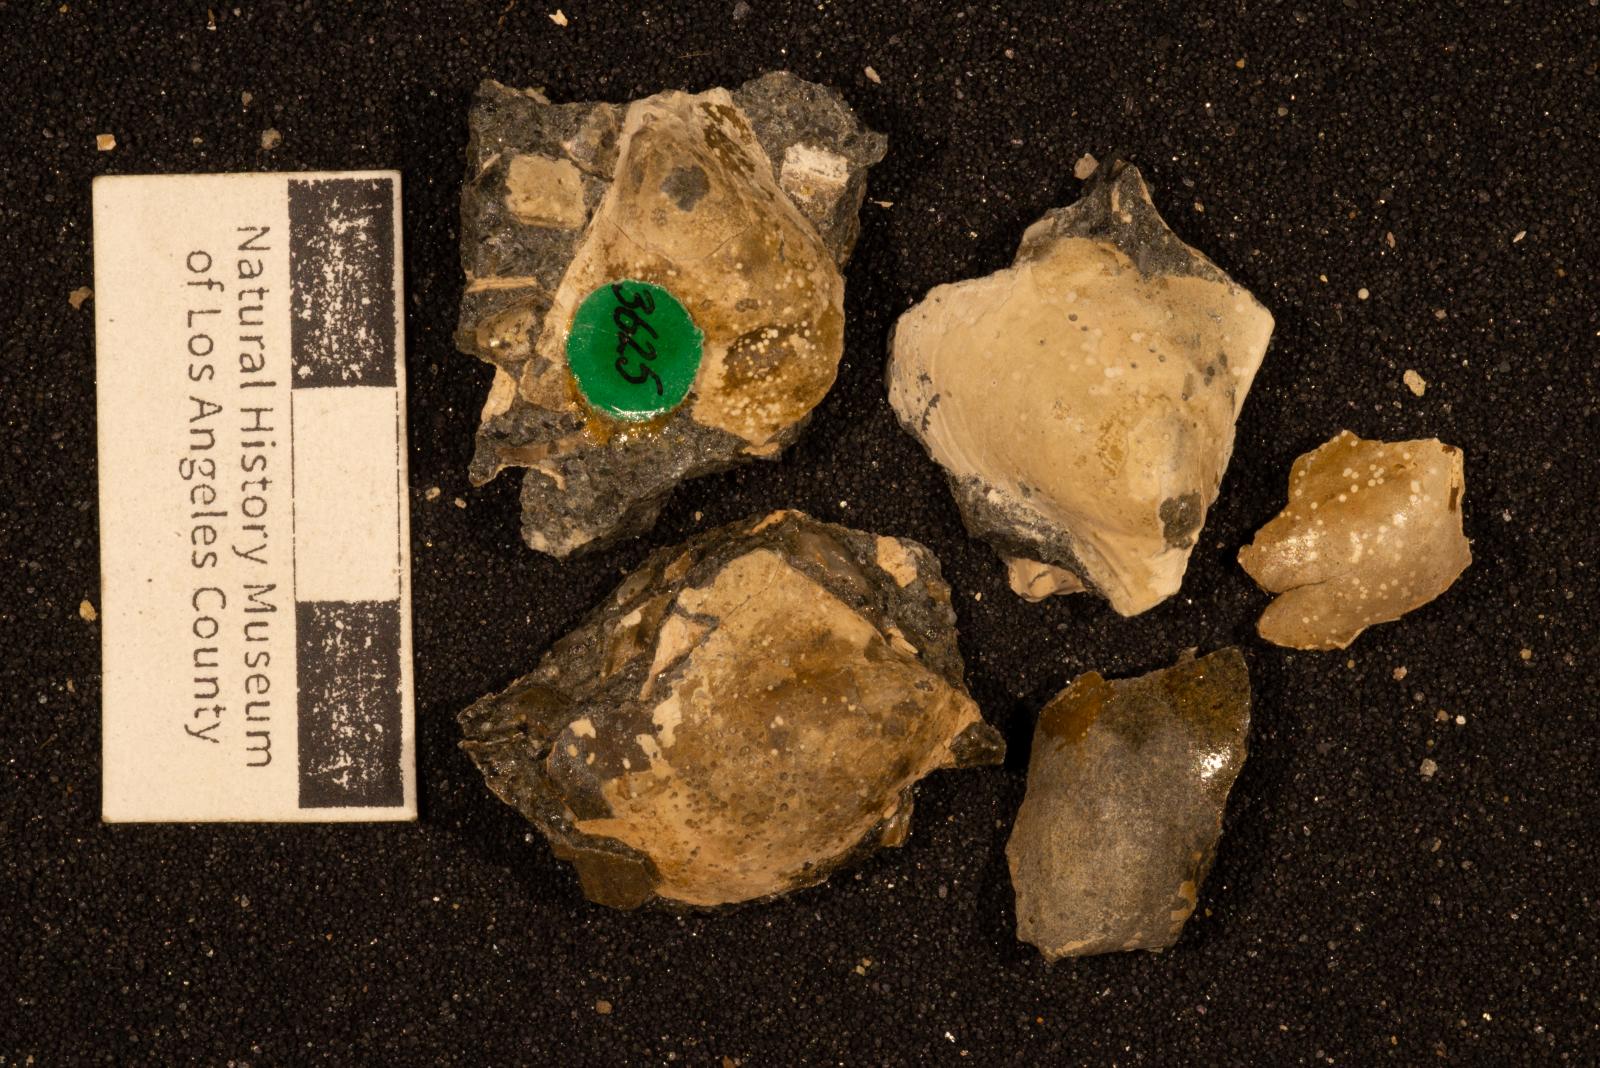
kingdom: Animalia
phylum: Porifera
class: Demospongiae
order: Clionaida
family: Clionaidae
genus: Entobia
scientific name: Entobia
